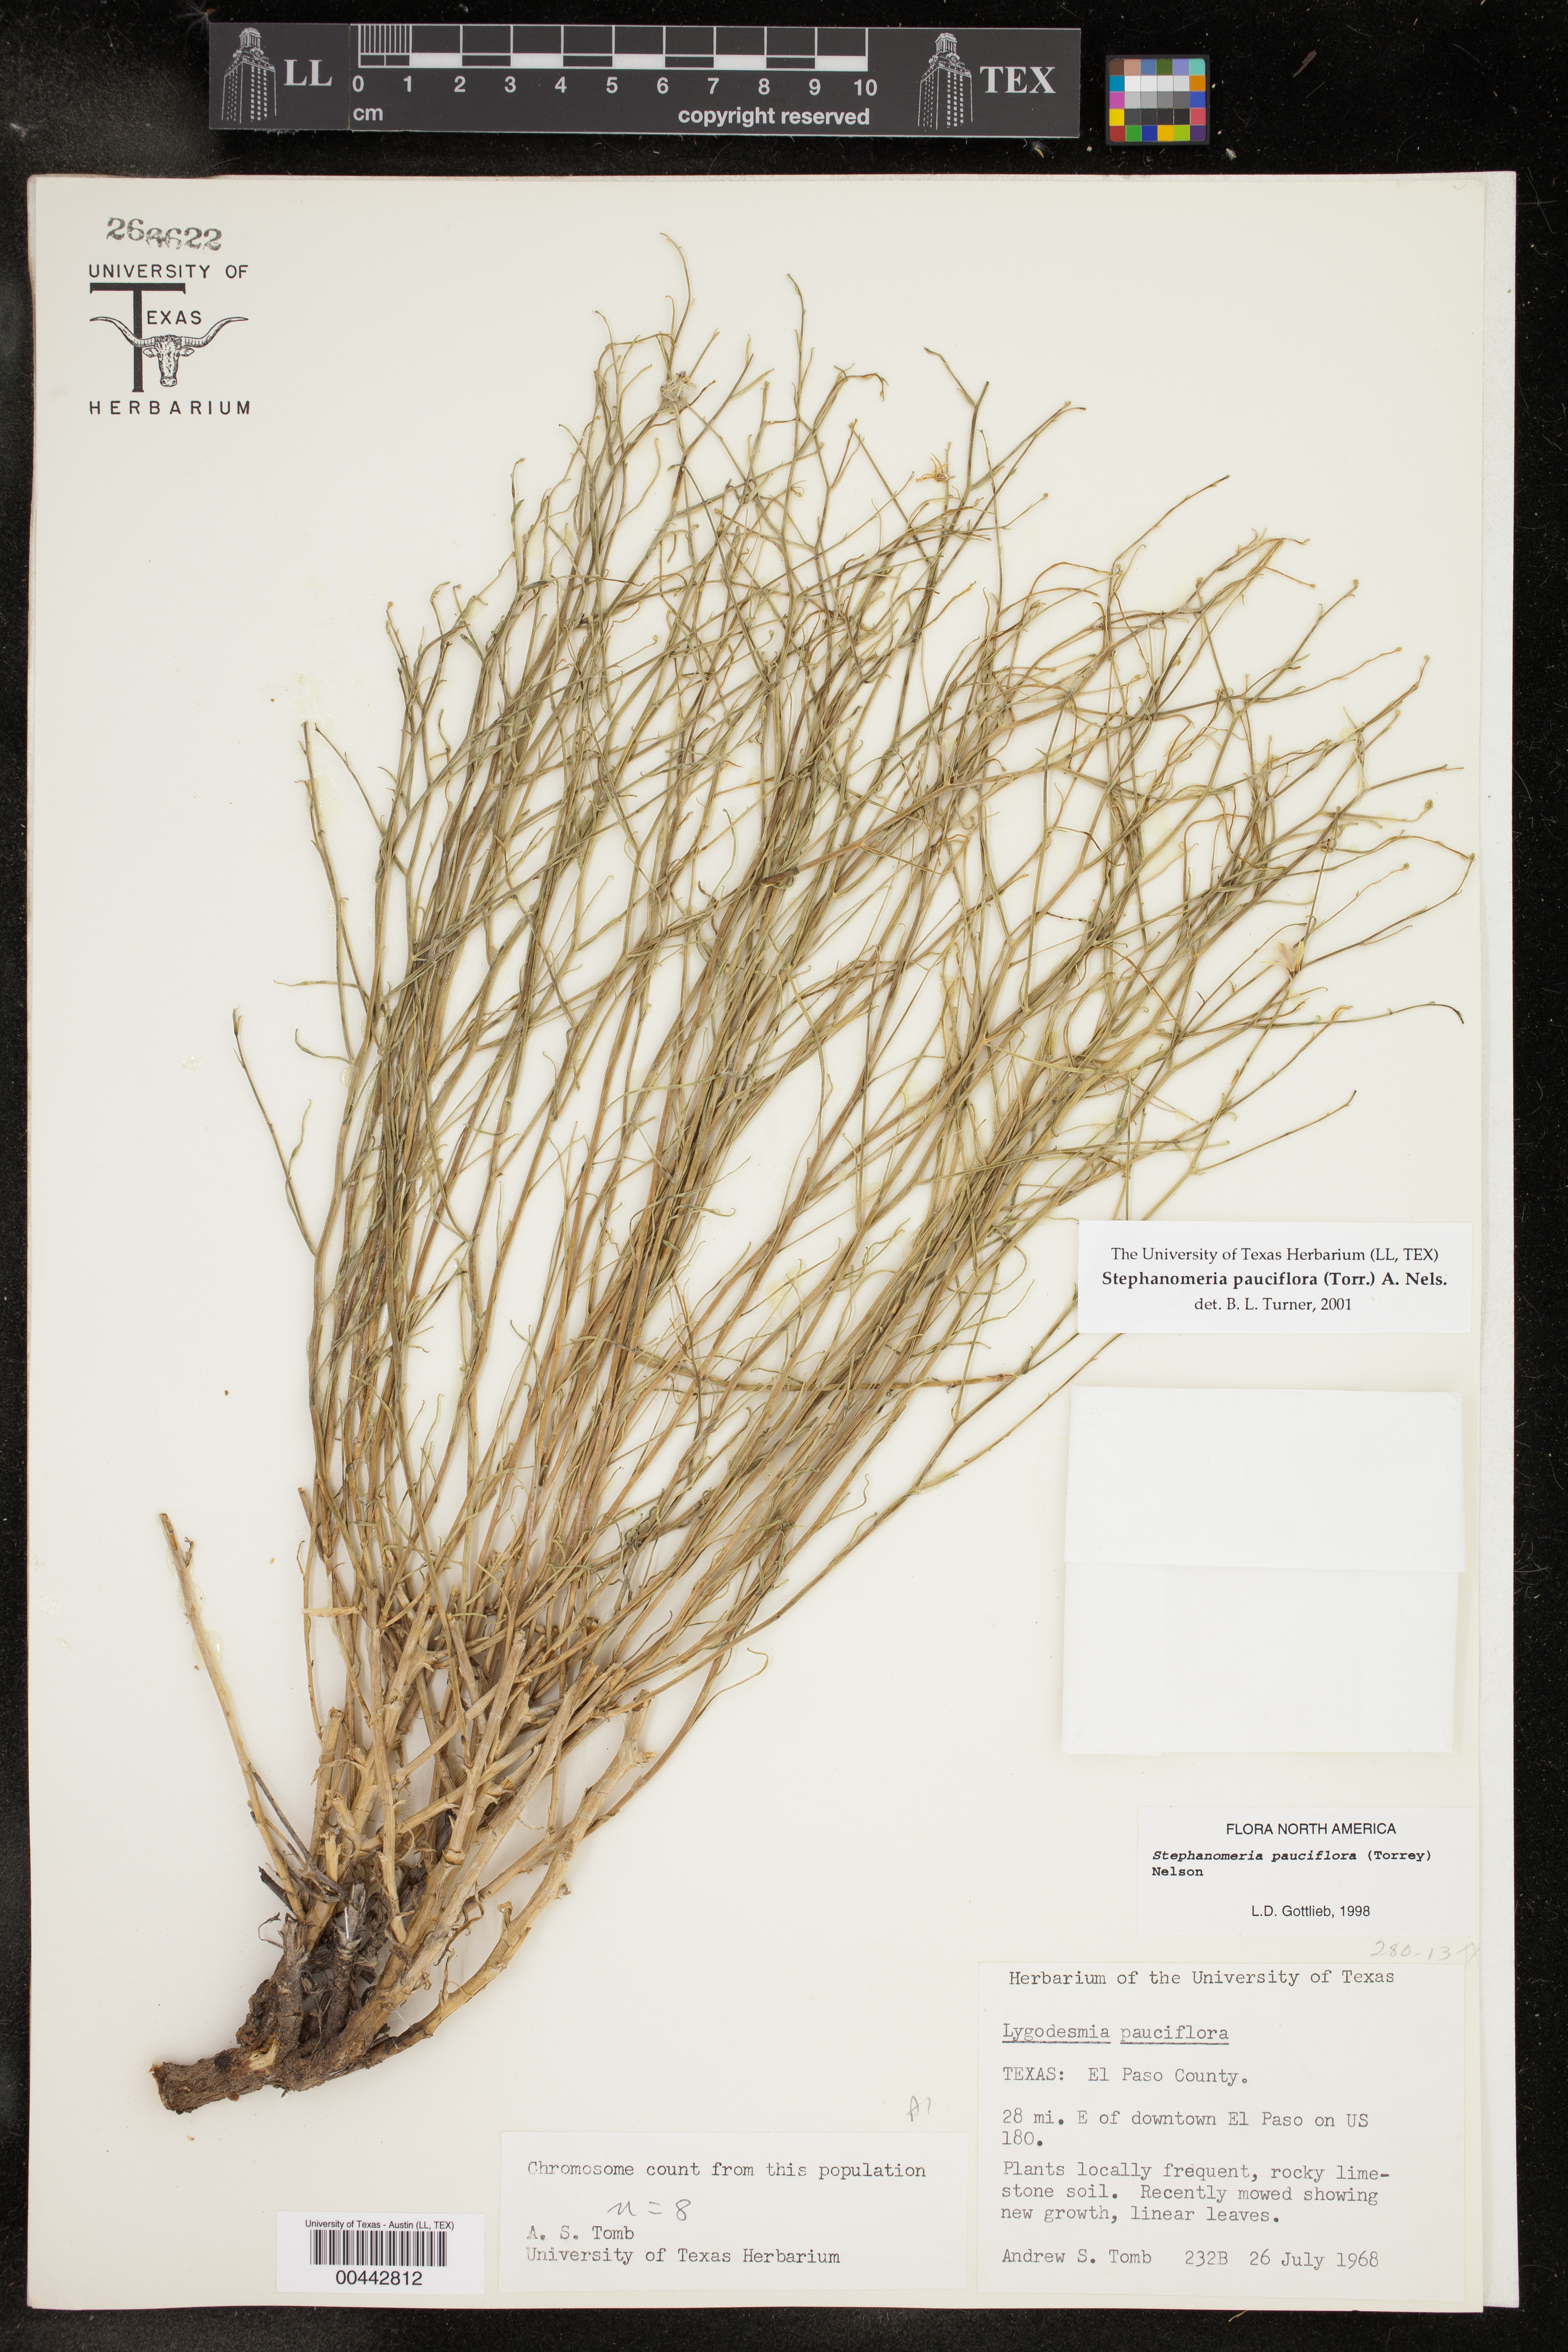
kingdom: Plantae
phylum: Tracheophyta
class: Magnoliopsida
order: Asterales
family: Asteraceae
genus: Stephanomeria
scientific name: Stephanomeria pauciflora
